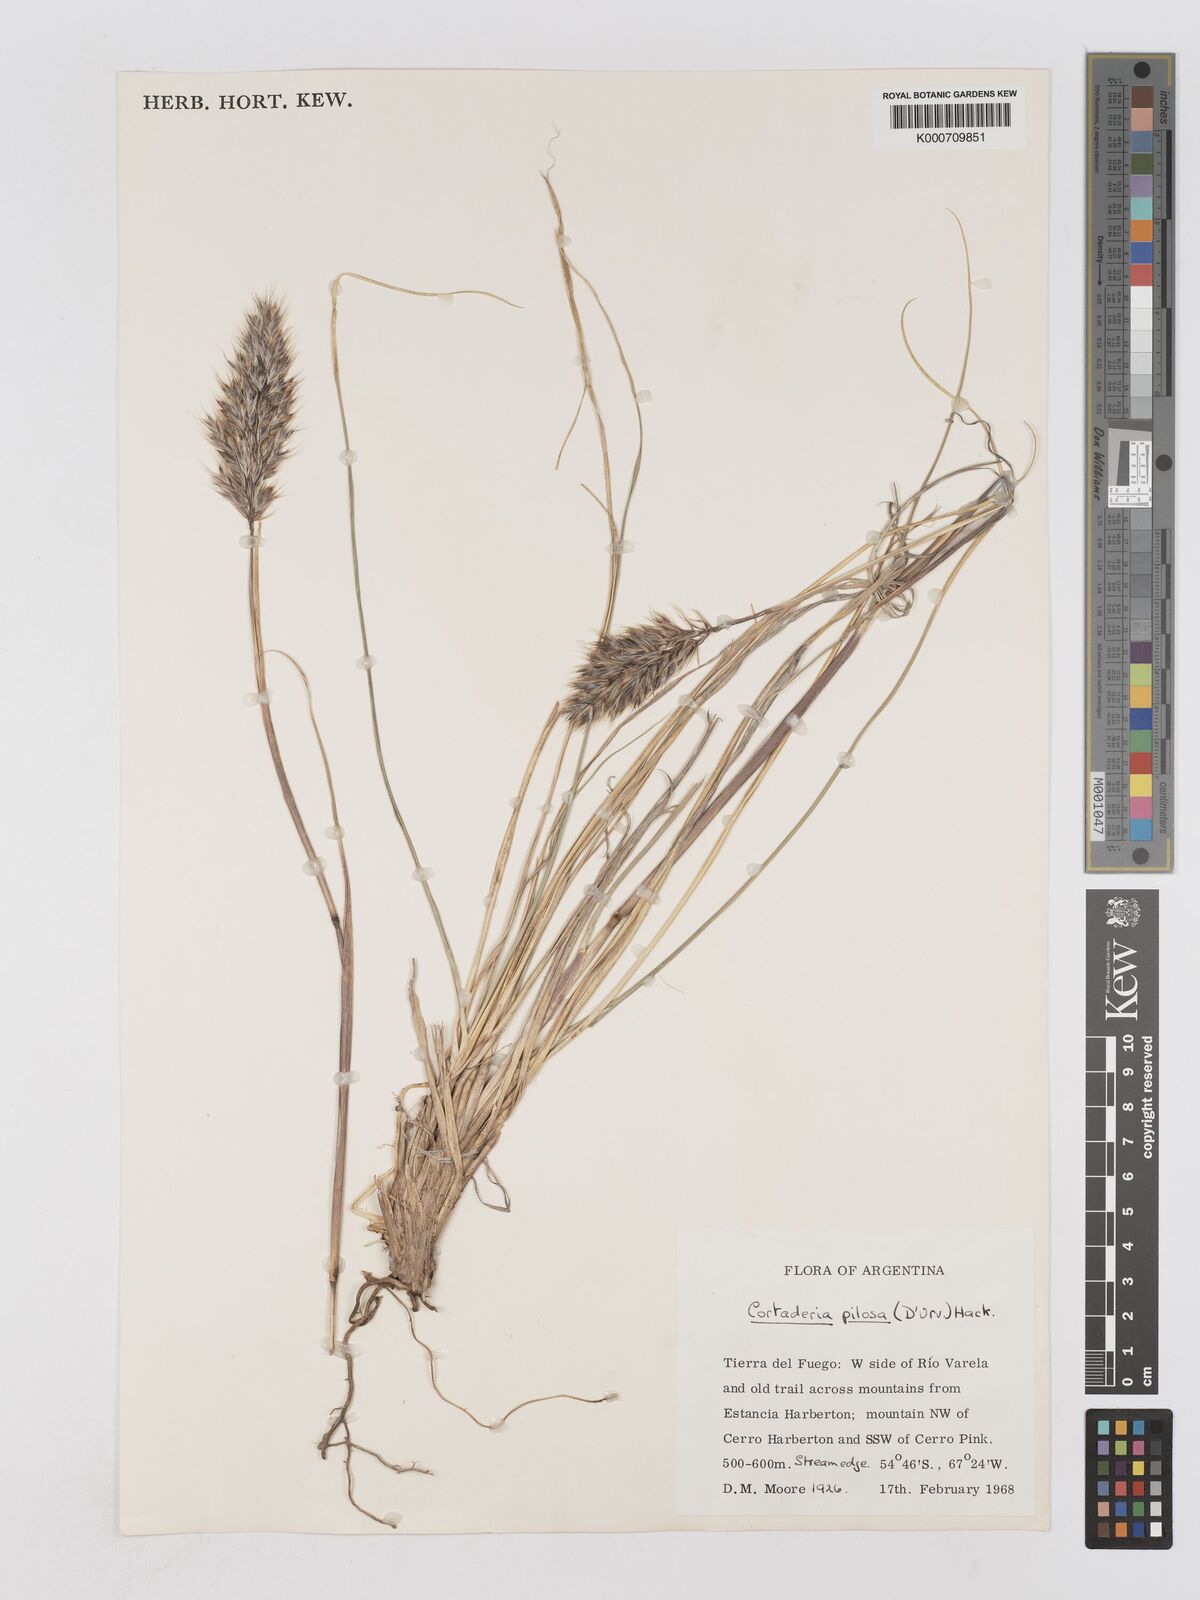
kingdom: Plantae
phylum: Tracheophyta
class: Liliopsida
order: Poales
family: Poaceae
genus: Cortaderia
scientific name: Cortaderia
